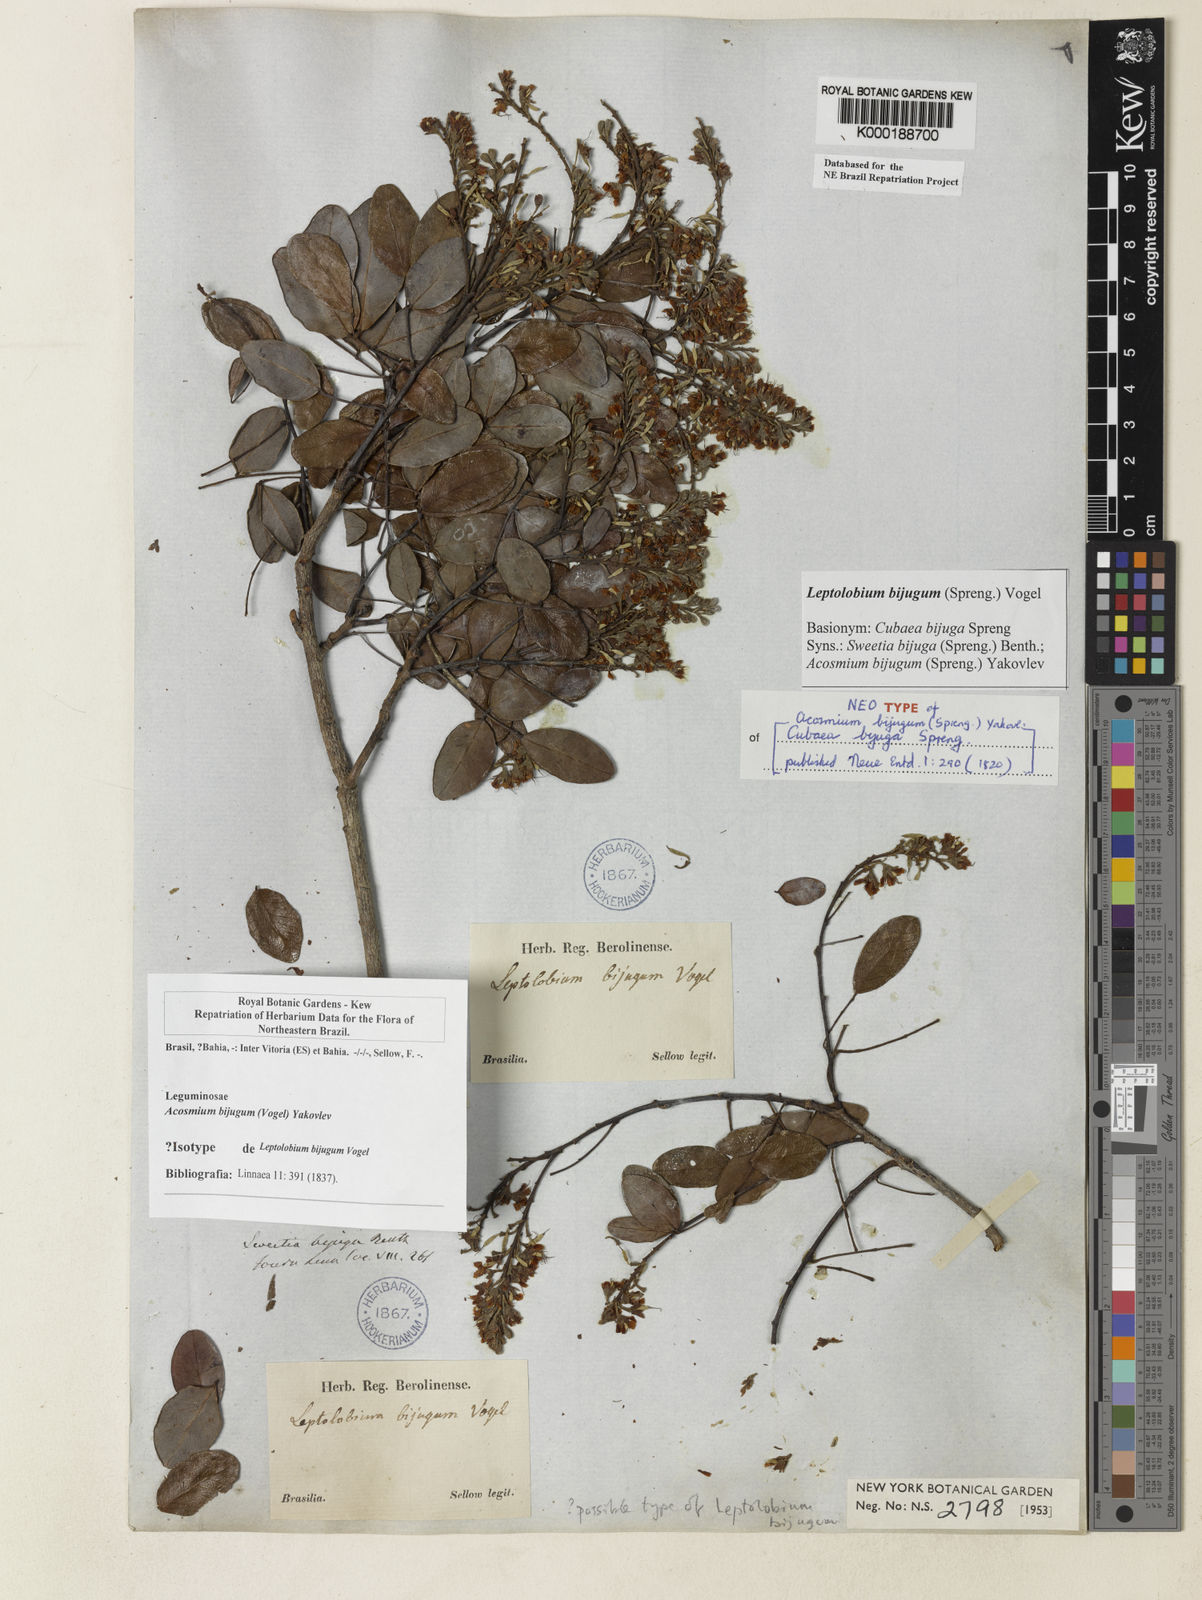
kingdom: Plantae
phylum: Tracheophyta
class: Magnoliopsida
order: Fabales
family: Fabaceae
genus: Leptolobium
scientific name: Leptolobium bijugum
